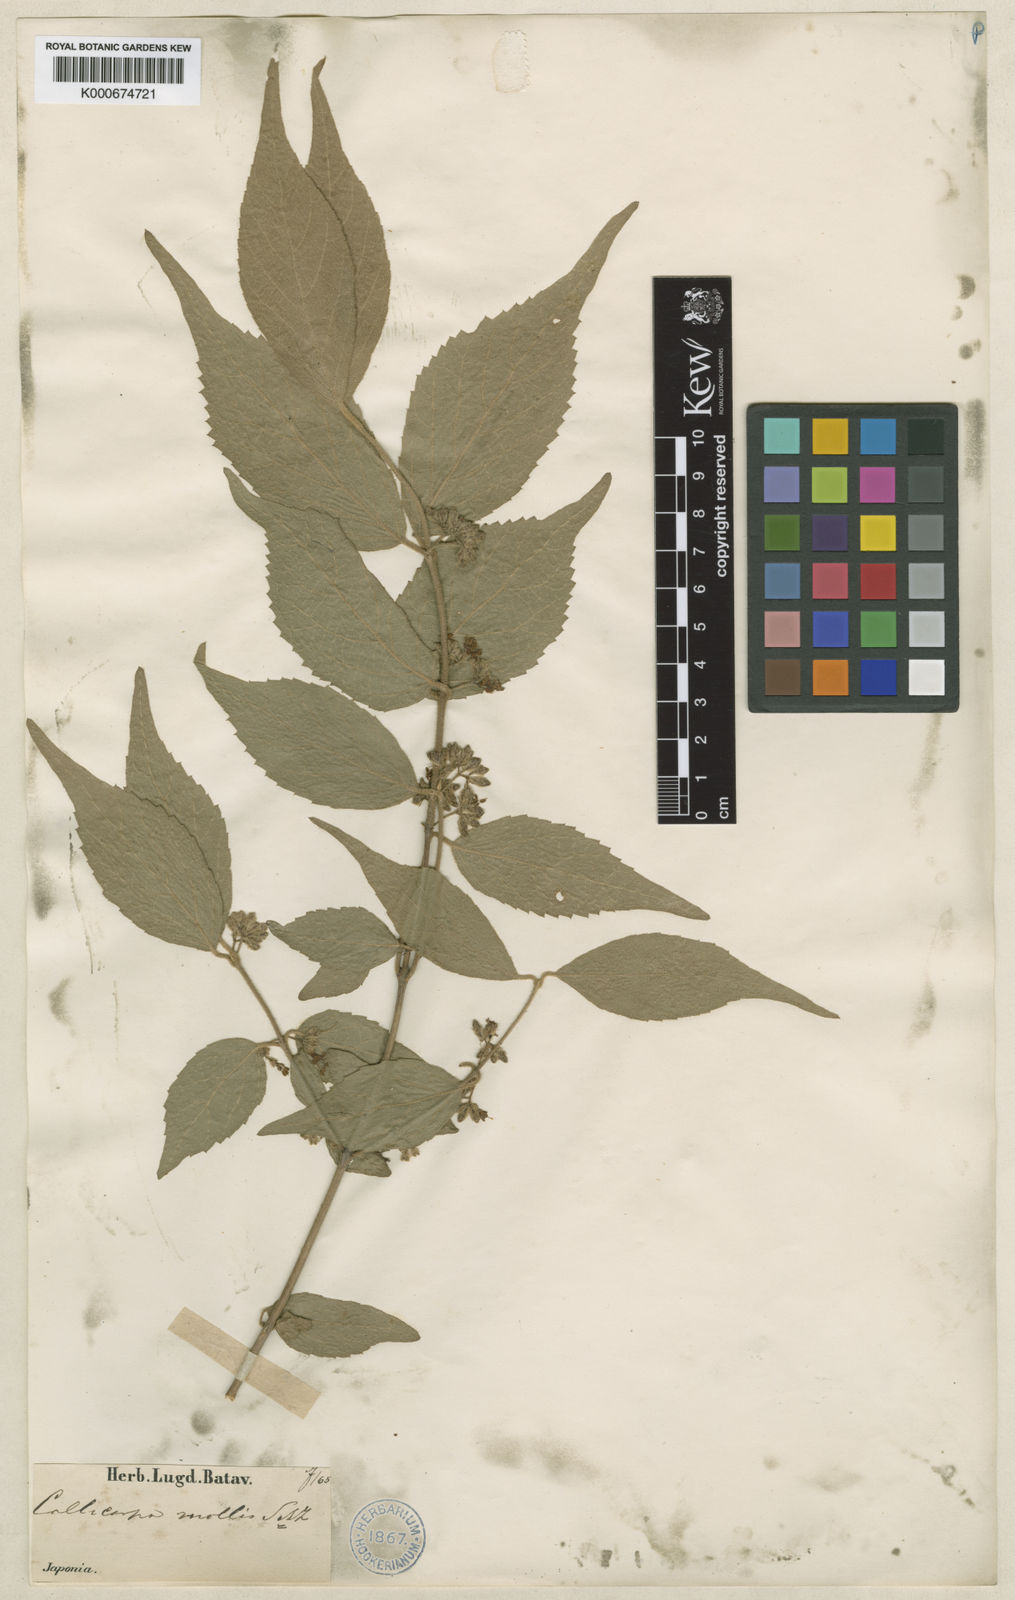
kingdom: Plantae
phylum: Tracheophyta
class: Magnoliopsida
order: Lamiales
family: Lamiaceae
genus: Callicarpa
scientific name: Callicarpa mollis
